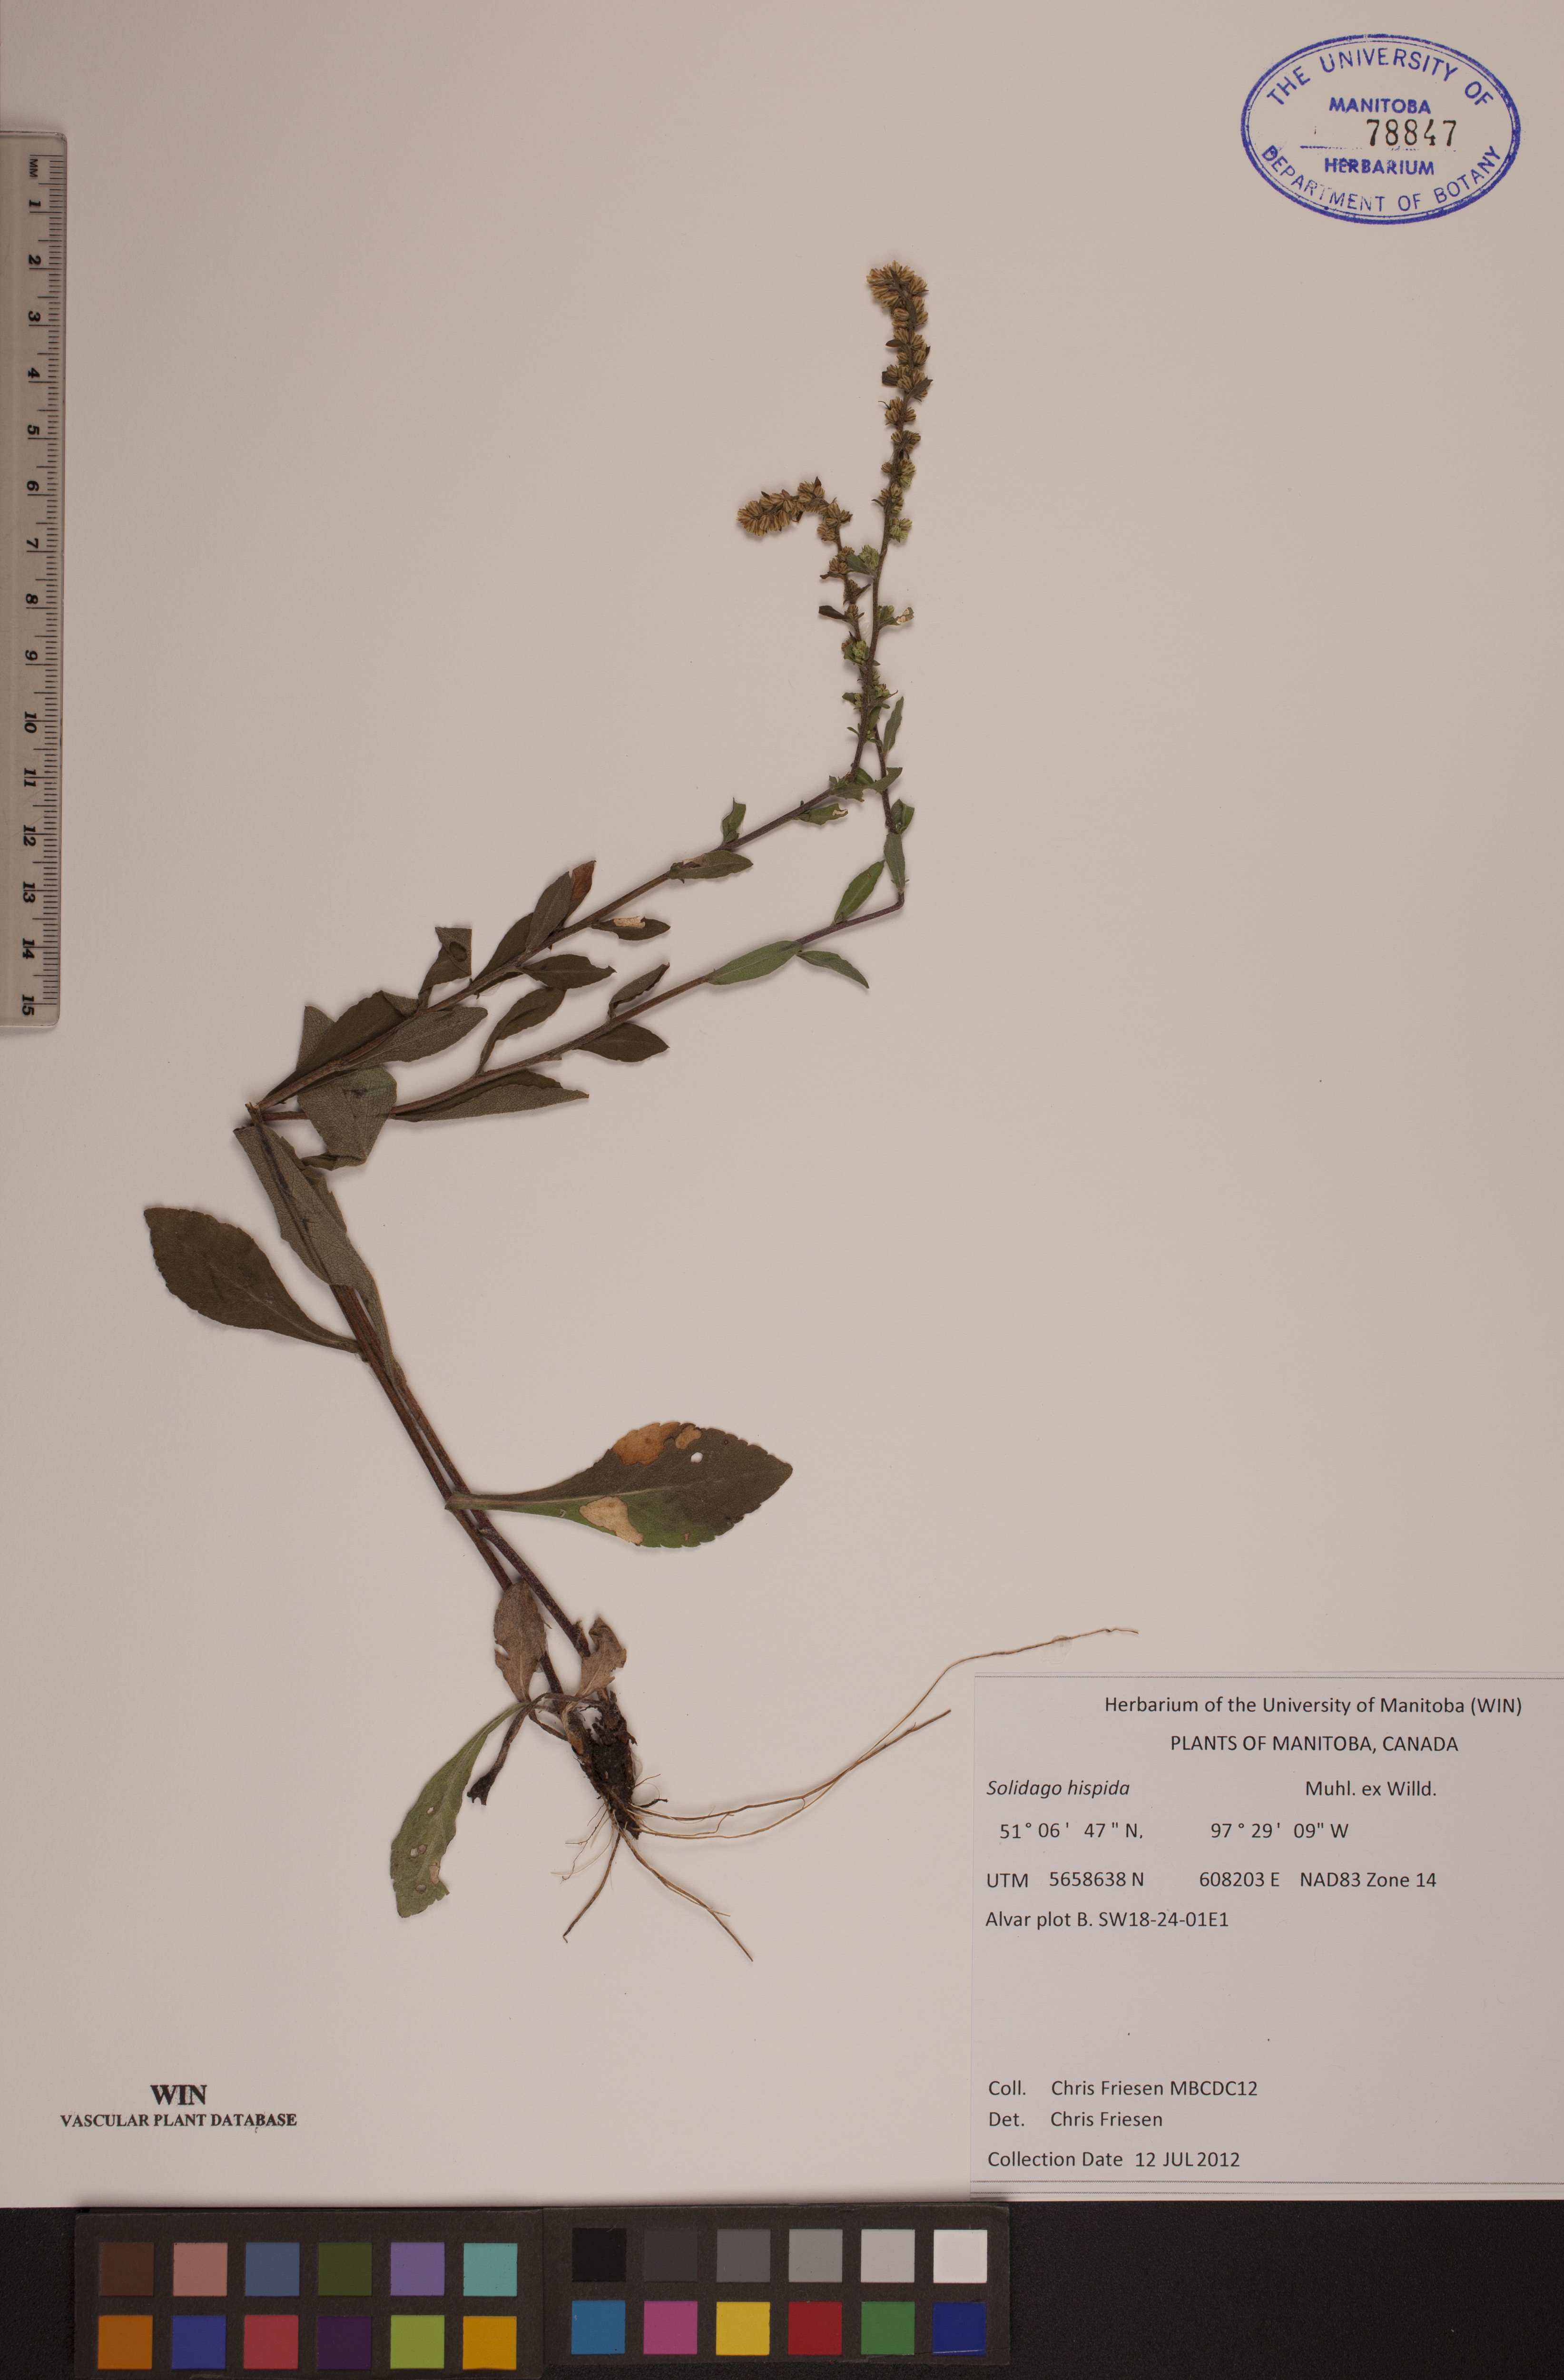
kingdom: Plantae
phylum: Tracheophyta
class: Magnoliopsida
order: Asterales
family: Asteraceae
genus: Solidago
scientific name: Solidago hispida
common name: Hairy goldenrod
